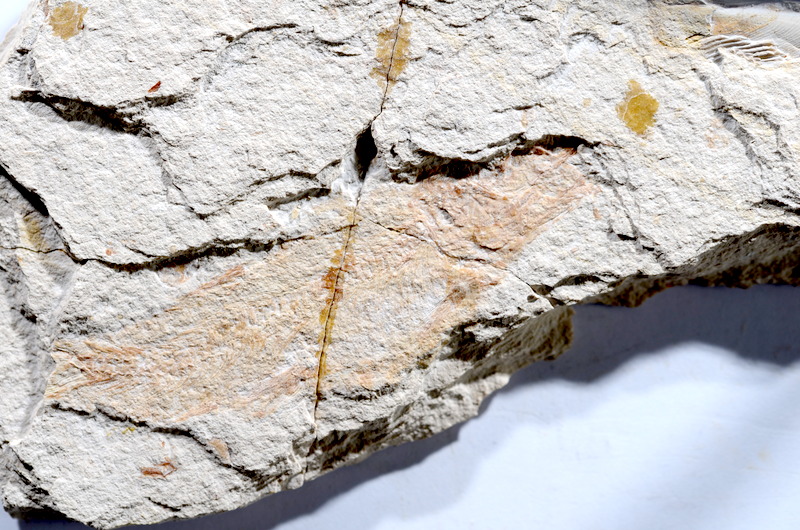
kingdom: Animalia
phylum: Chordata
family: Ascalaboidae
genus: Tharsis
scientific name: Tharsis dubius
